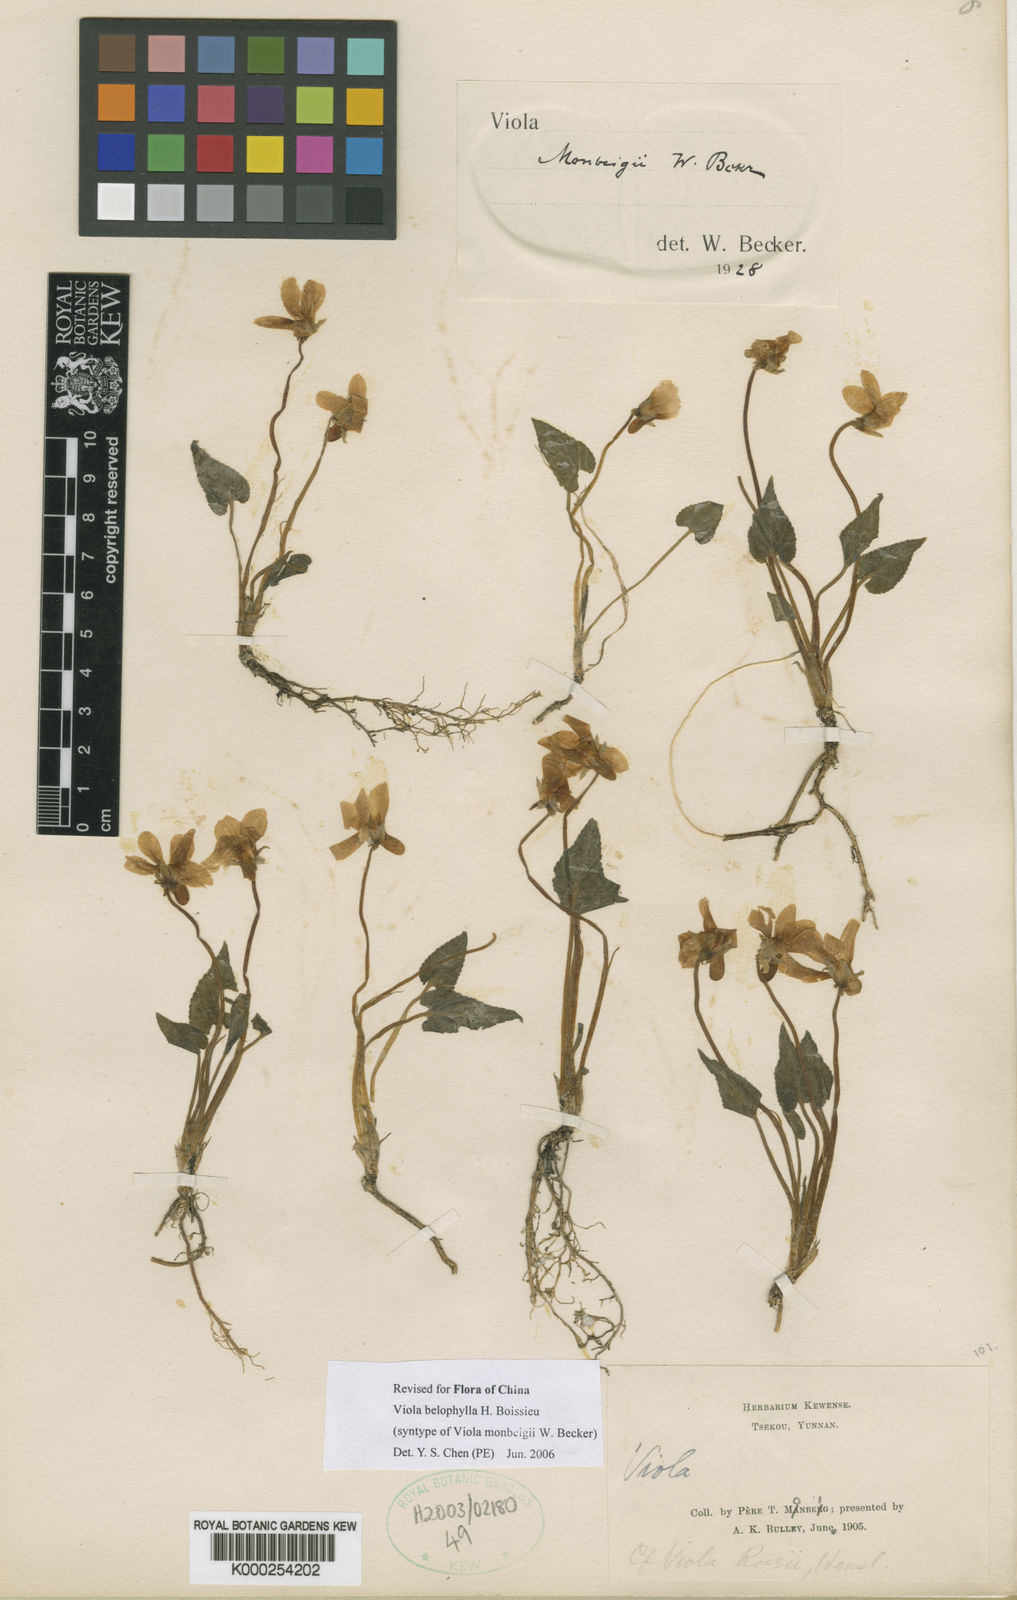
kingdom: Plantae
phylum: Tracheophyta
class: Magnoliopsida
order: Malpighiales
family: Violaceae
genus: Viola
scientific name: Viola belophylla
